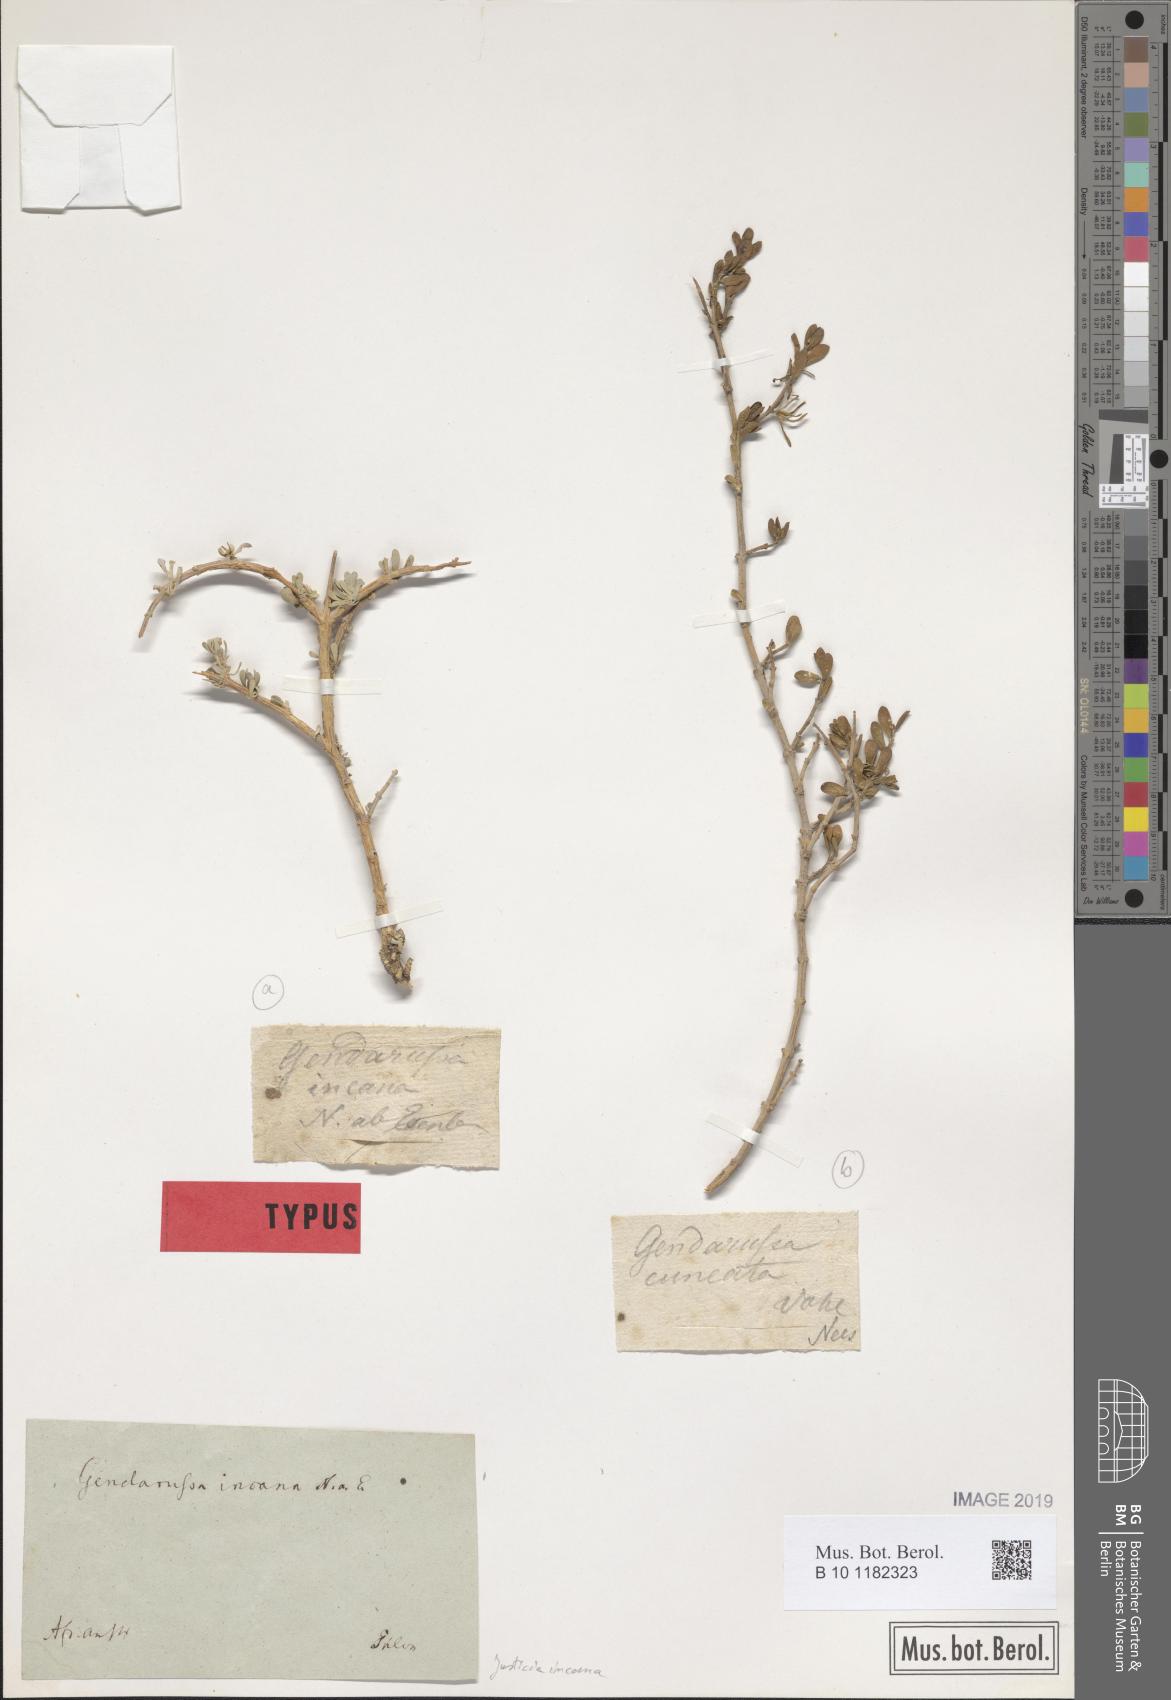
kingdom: Plantae
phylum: Tracheophyta
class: Magnoliopsida
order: Lamiales
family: Acanthaceae
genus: Monechma
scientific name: Monechma incanum
